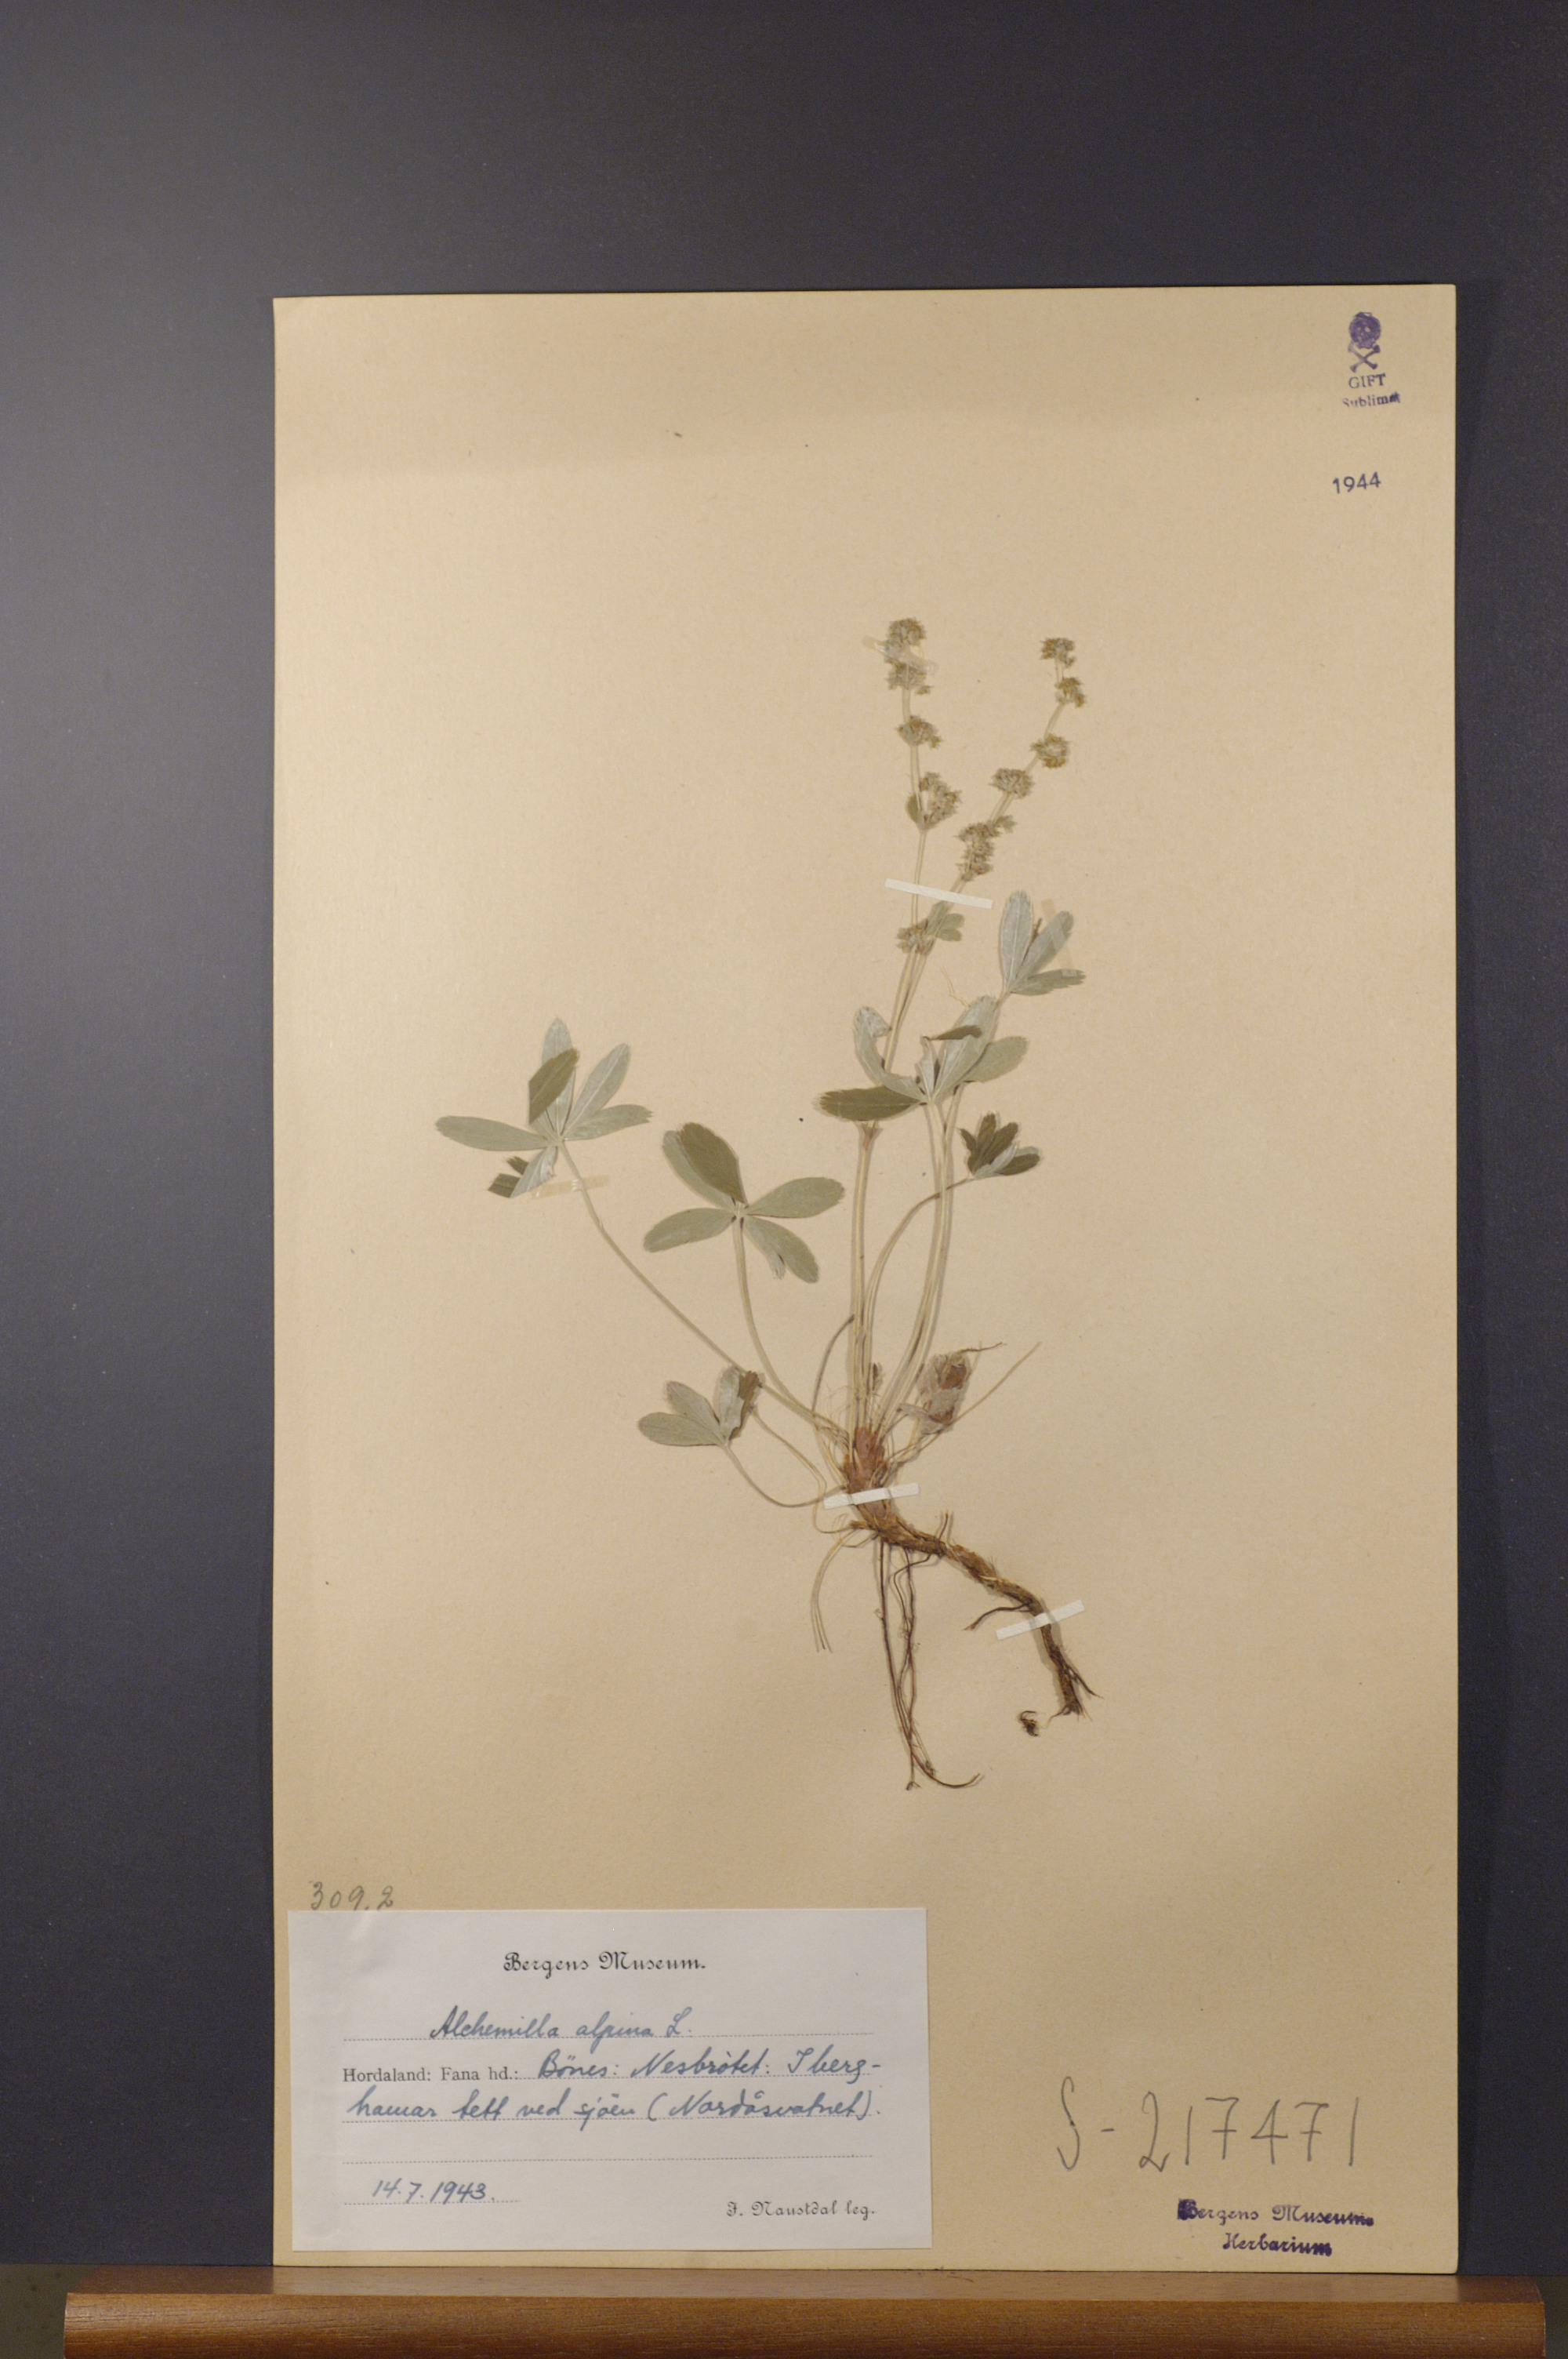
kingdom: Plantae
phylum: Tracheophyta
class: Magnoliopsida
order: Rosales
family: Rosaceae
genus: Alchemilla
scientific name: Alchemilla alpina
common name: Alpine lady's-mantle
